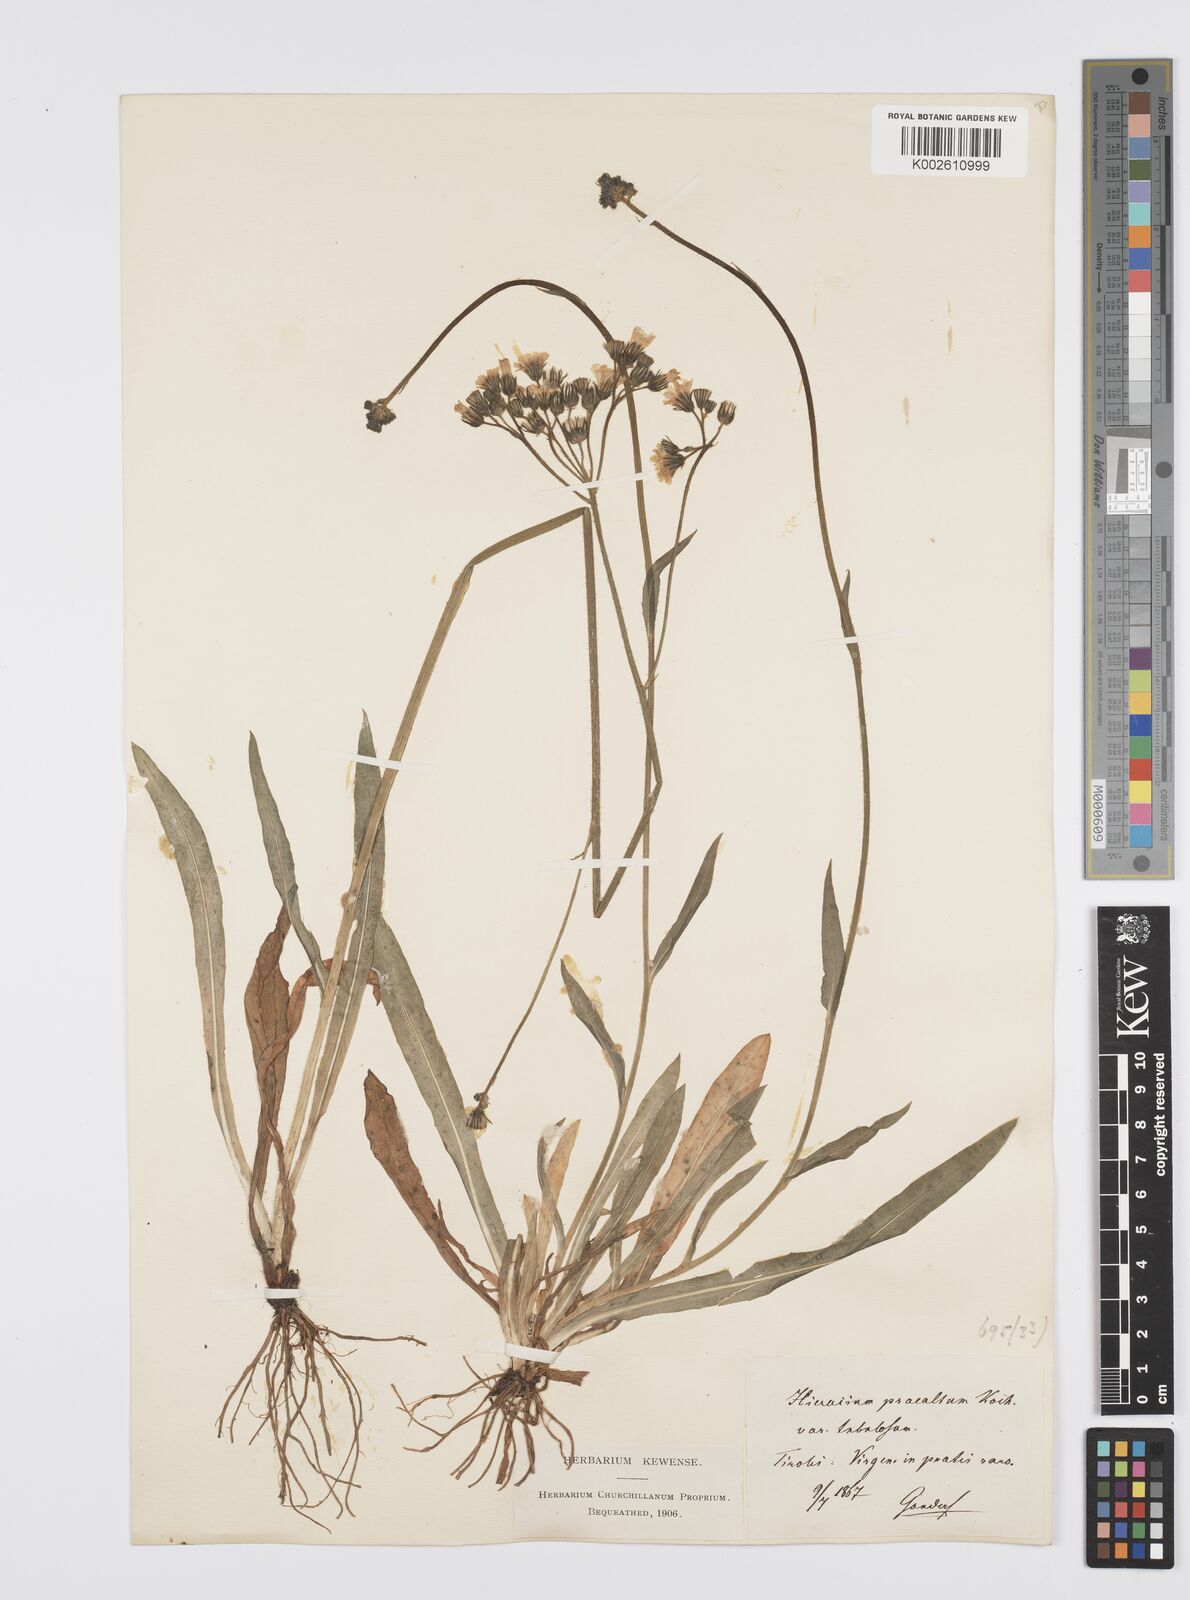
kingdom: Plantae
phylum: Tracheophyta
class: Magnoliopsida
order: Asterales
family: Asteraceae
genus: Pilosella
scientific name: Pilosella piloselloides
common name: Glaucous king-devil
